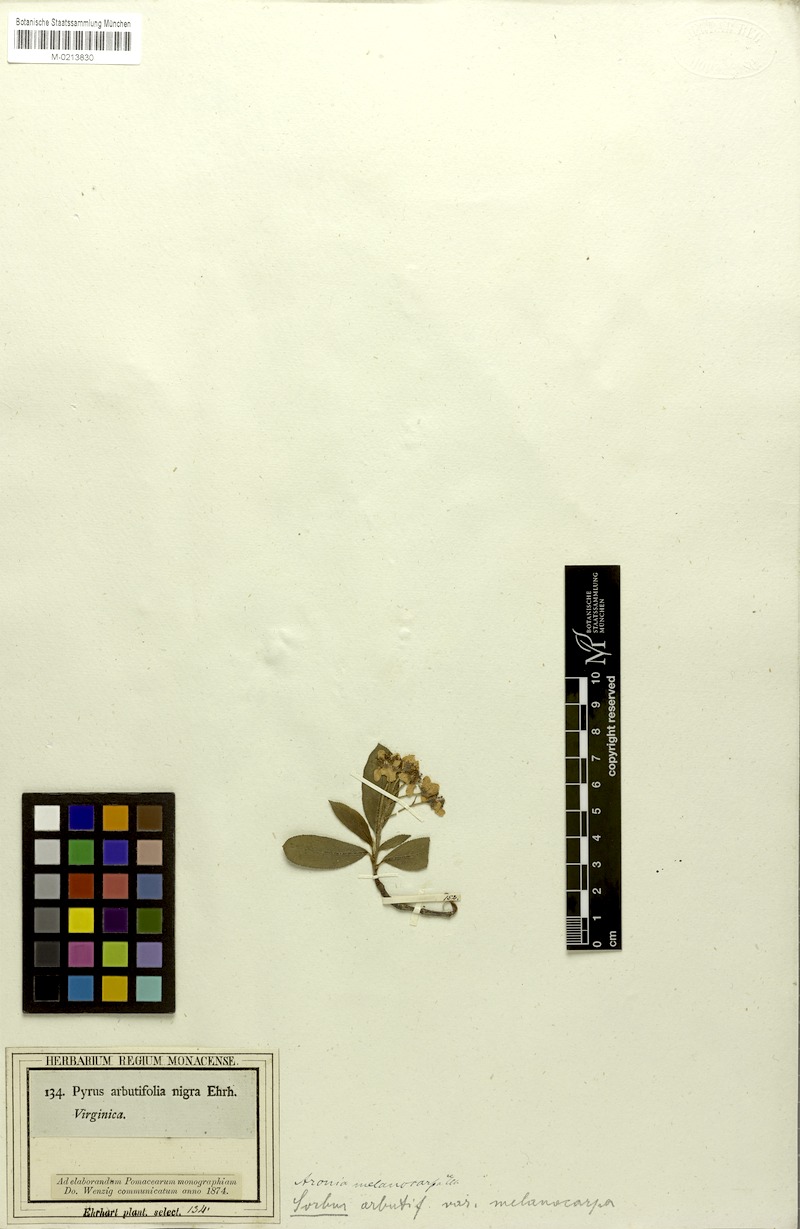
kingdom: Plantae
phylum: Tracheophyta
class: Magnoliopsida
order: Rosales
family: Rosaceae
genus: Aronia
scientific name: Aronia melanocarpa
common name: Black chokeberry
